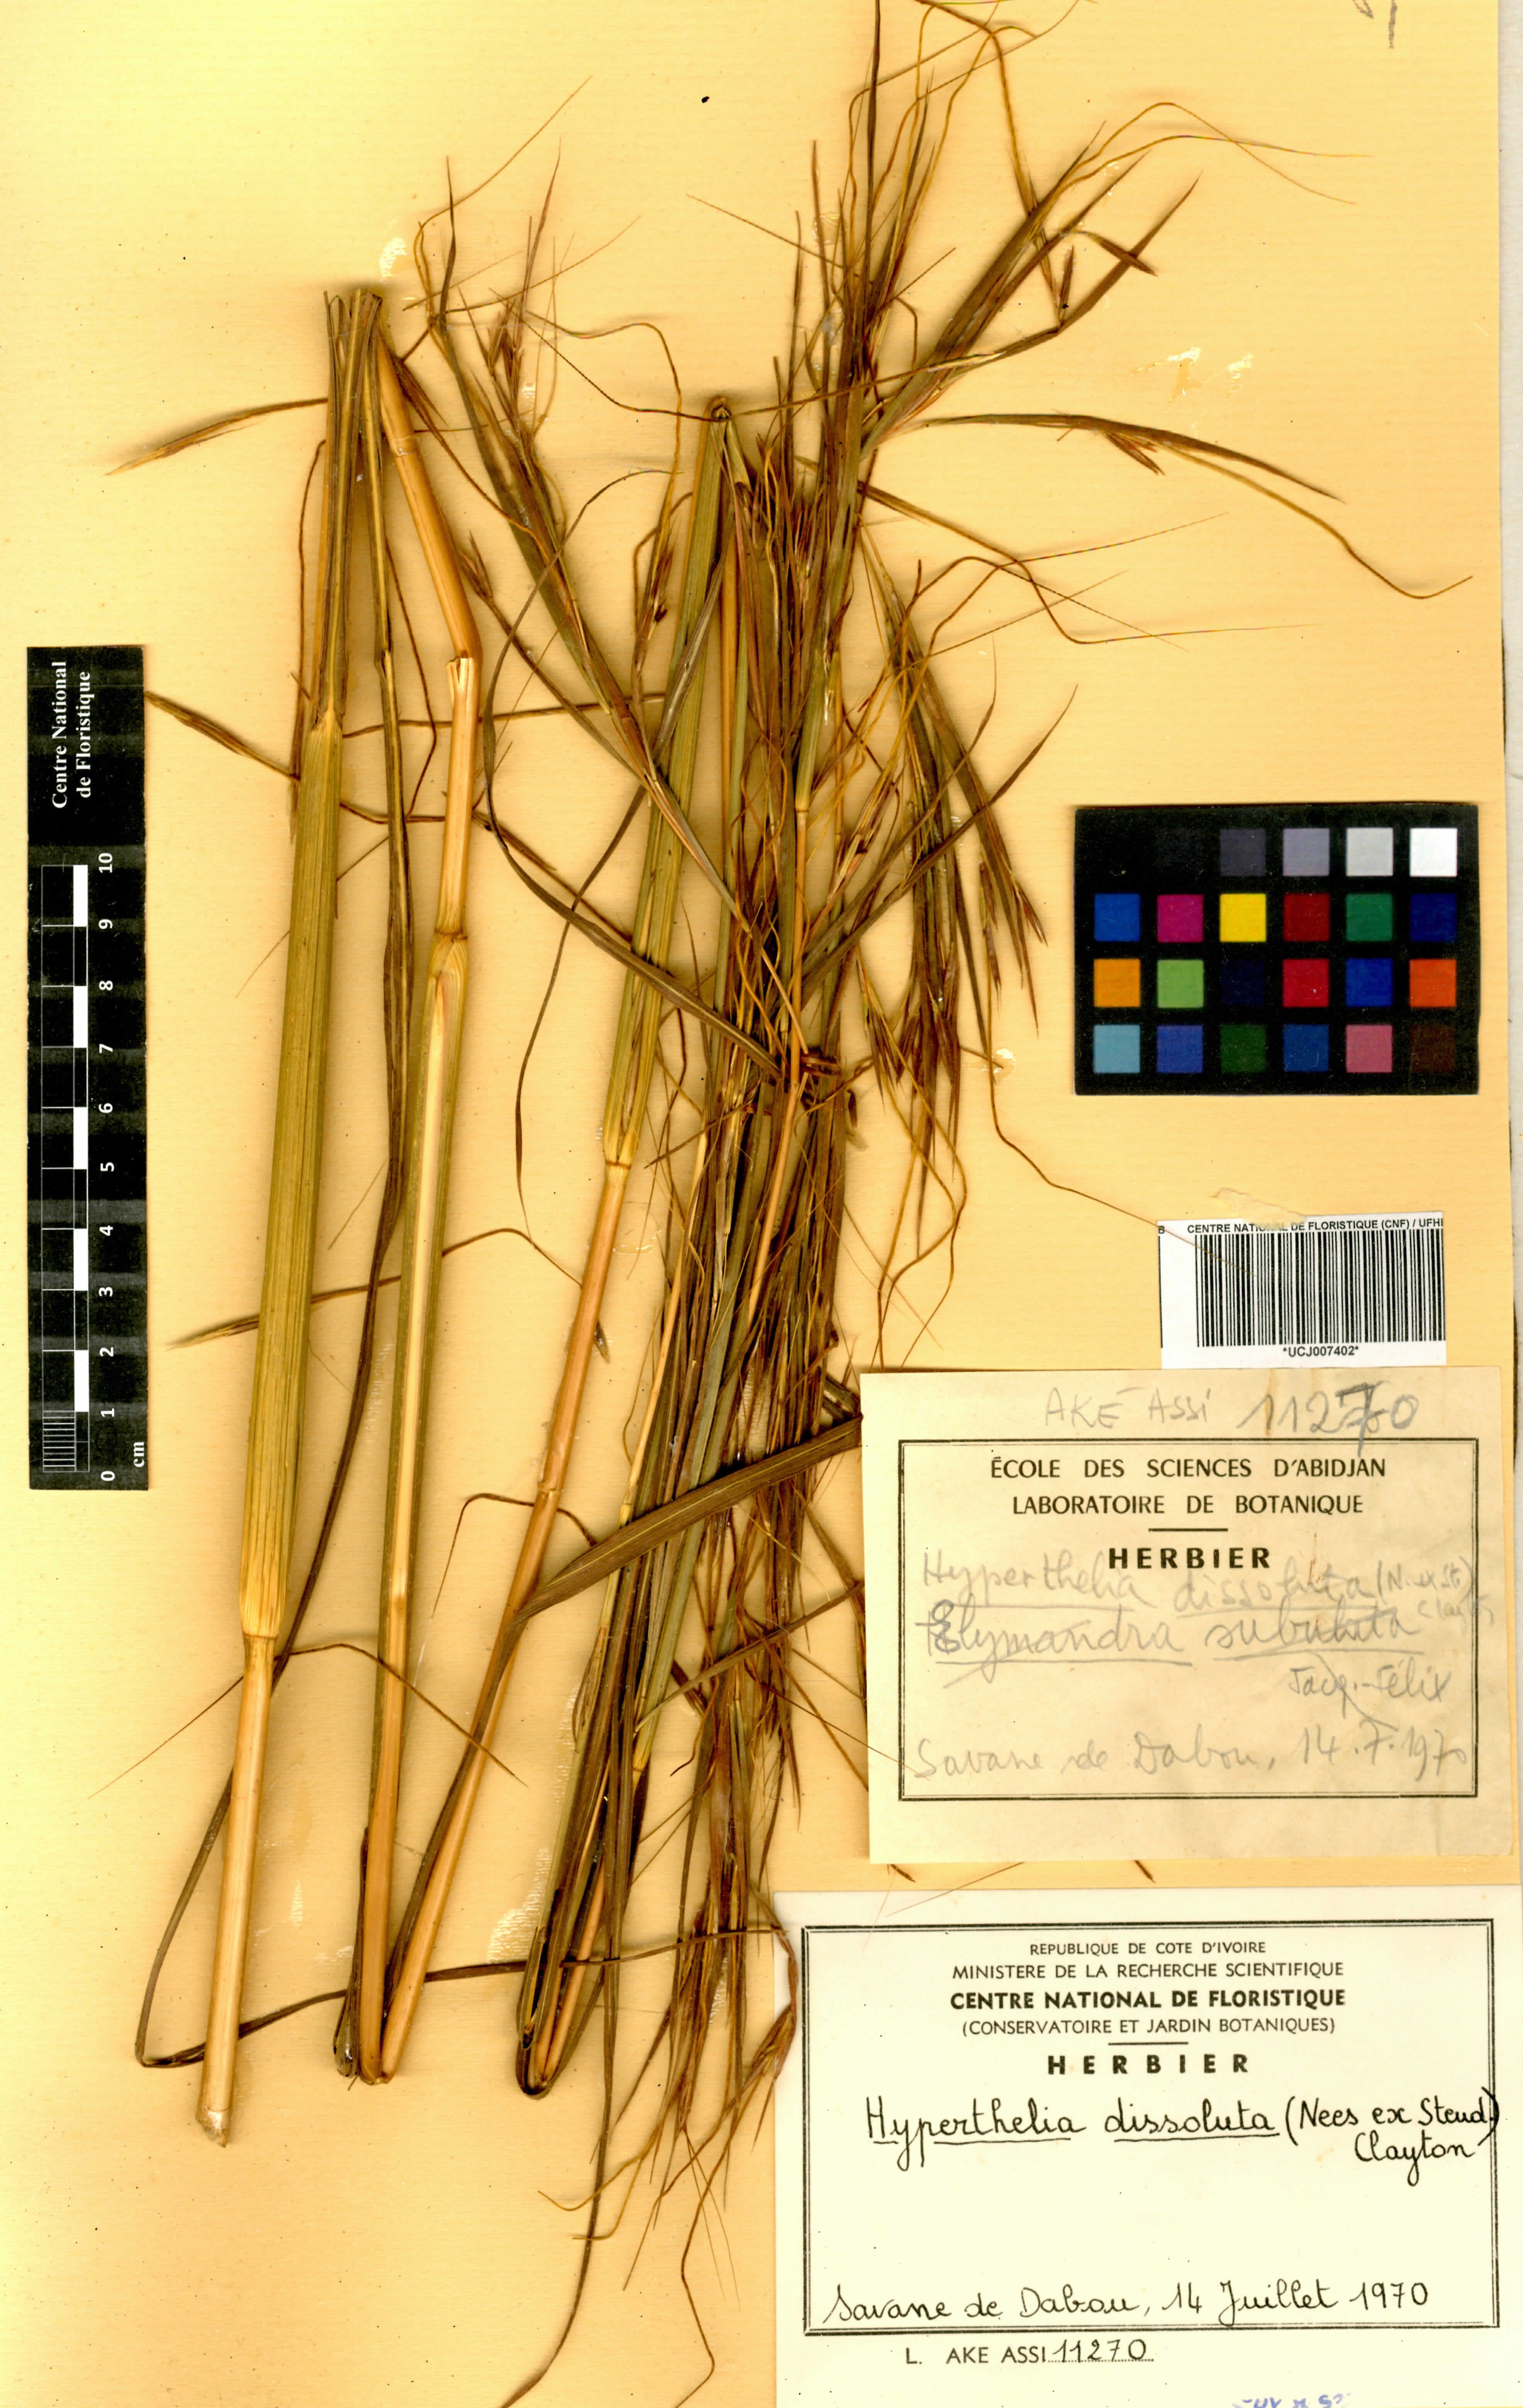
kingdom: Plantae
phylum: Tracheophyta
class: Liliopsida
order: Poales
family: Poaceae
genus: Hyperthelia
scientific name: Hyperthelia dissoluta
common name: Yellow thatching grass
